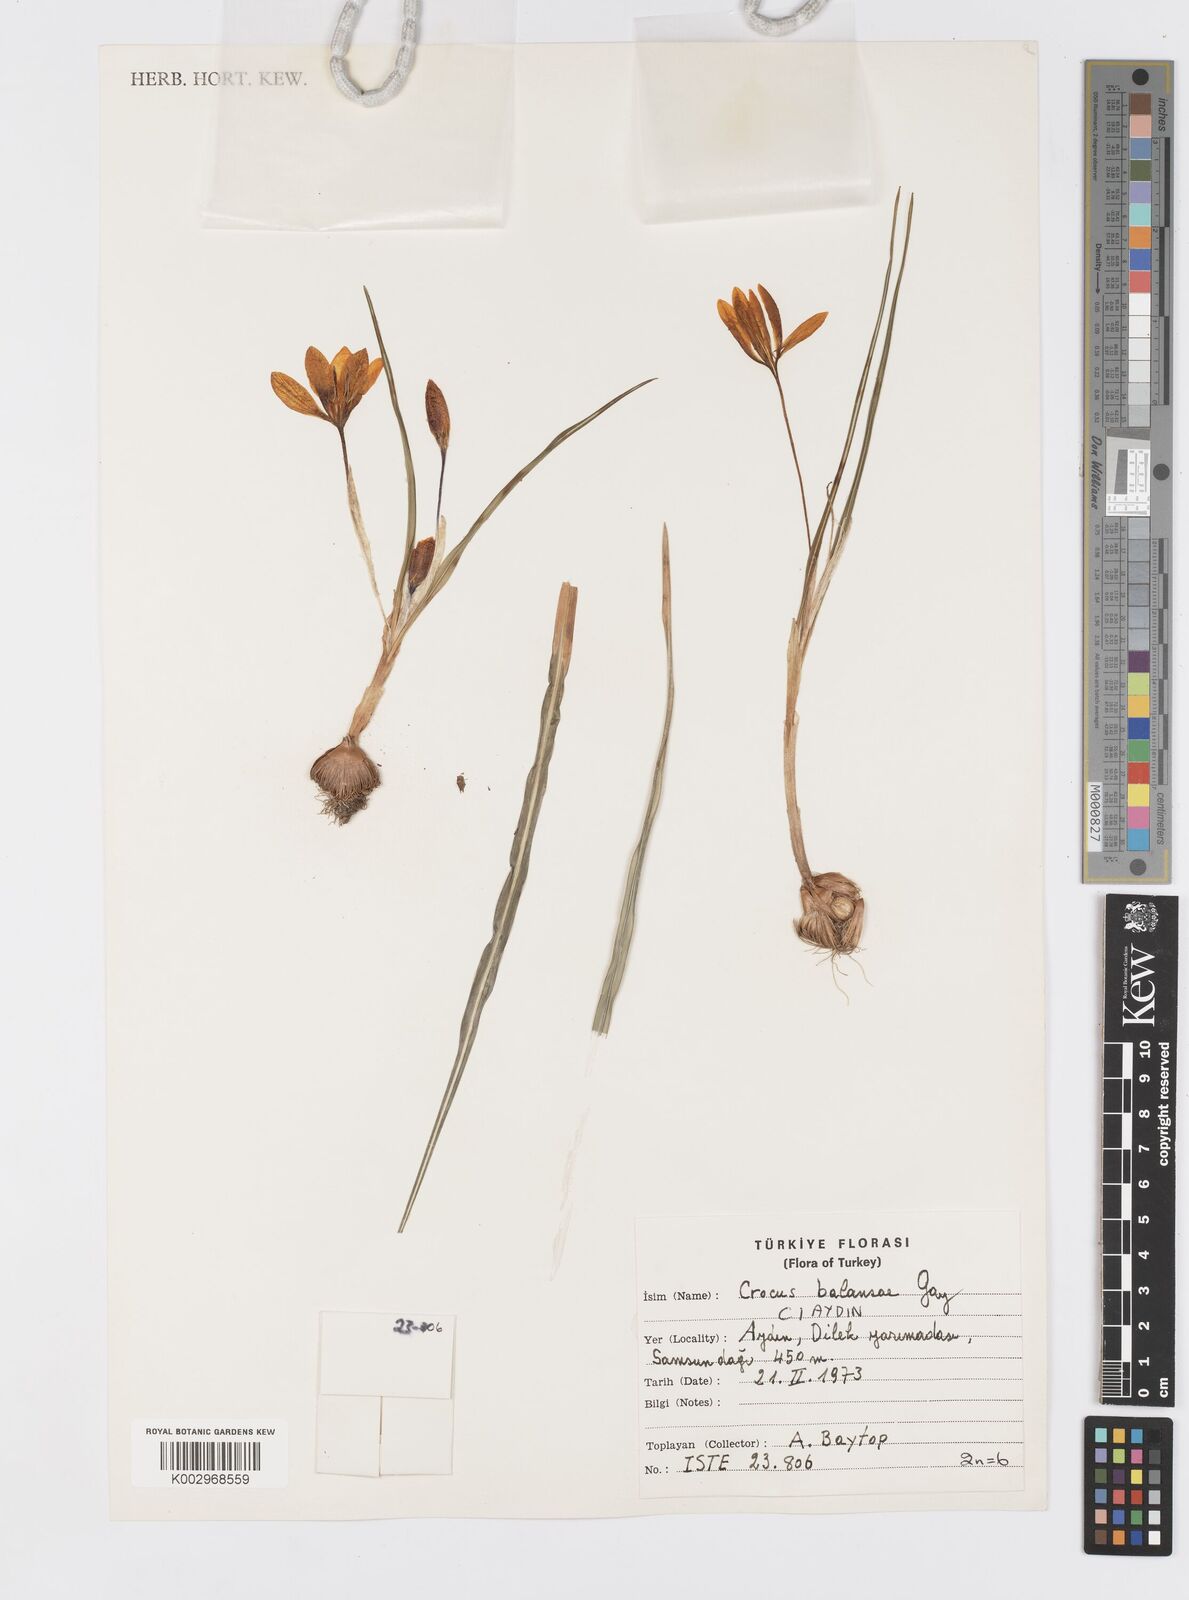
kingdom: Plantae
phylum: Tracheophyta
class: Liliopsida
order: Asparagales
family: Iridaceae
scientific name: Iridaceae
